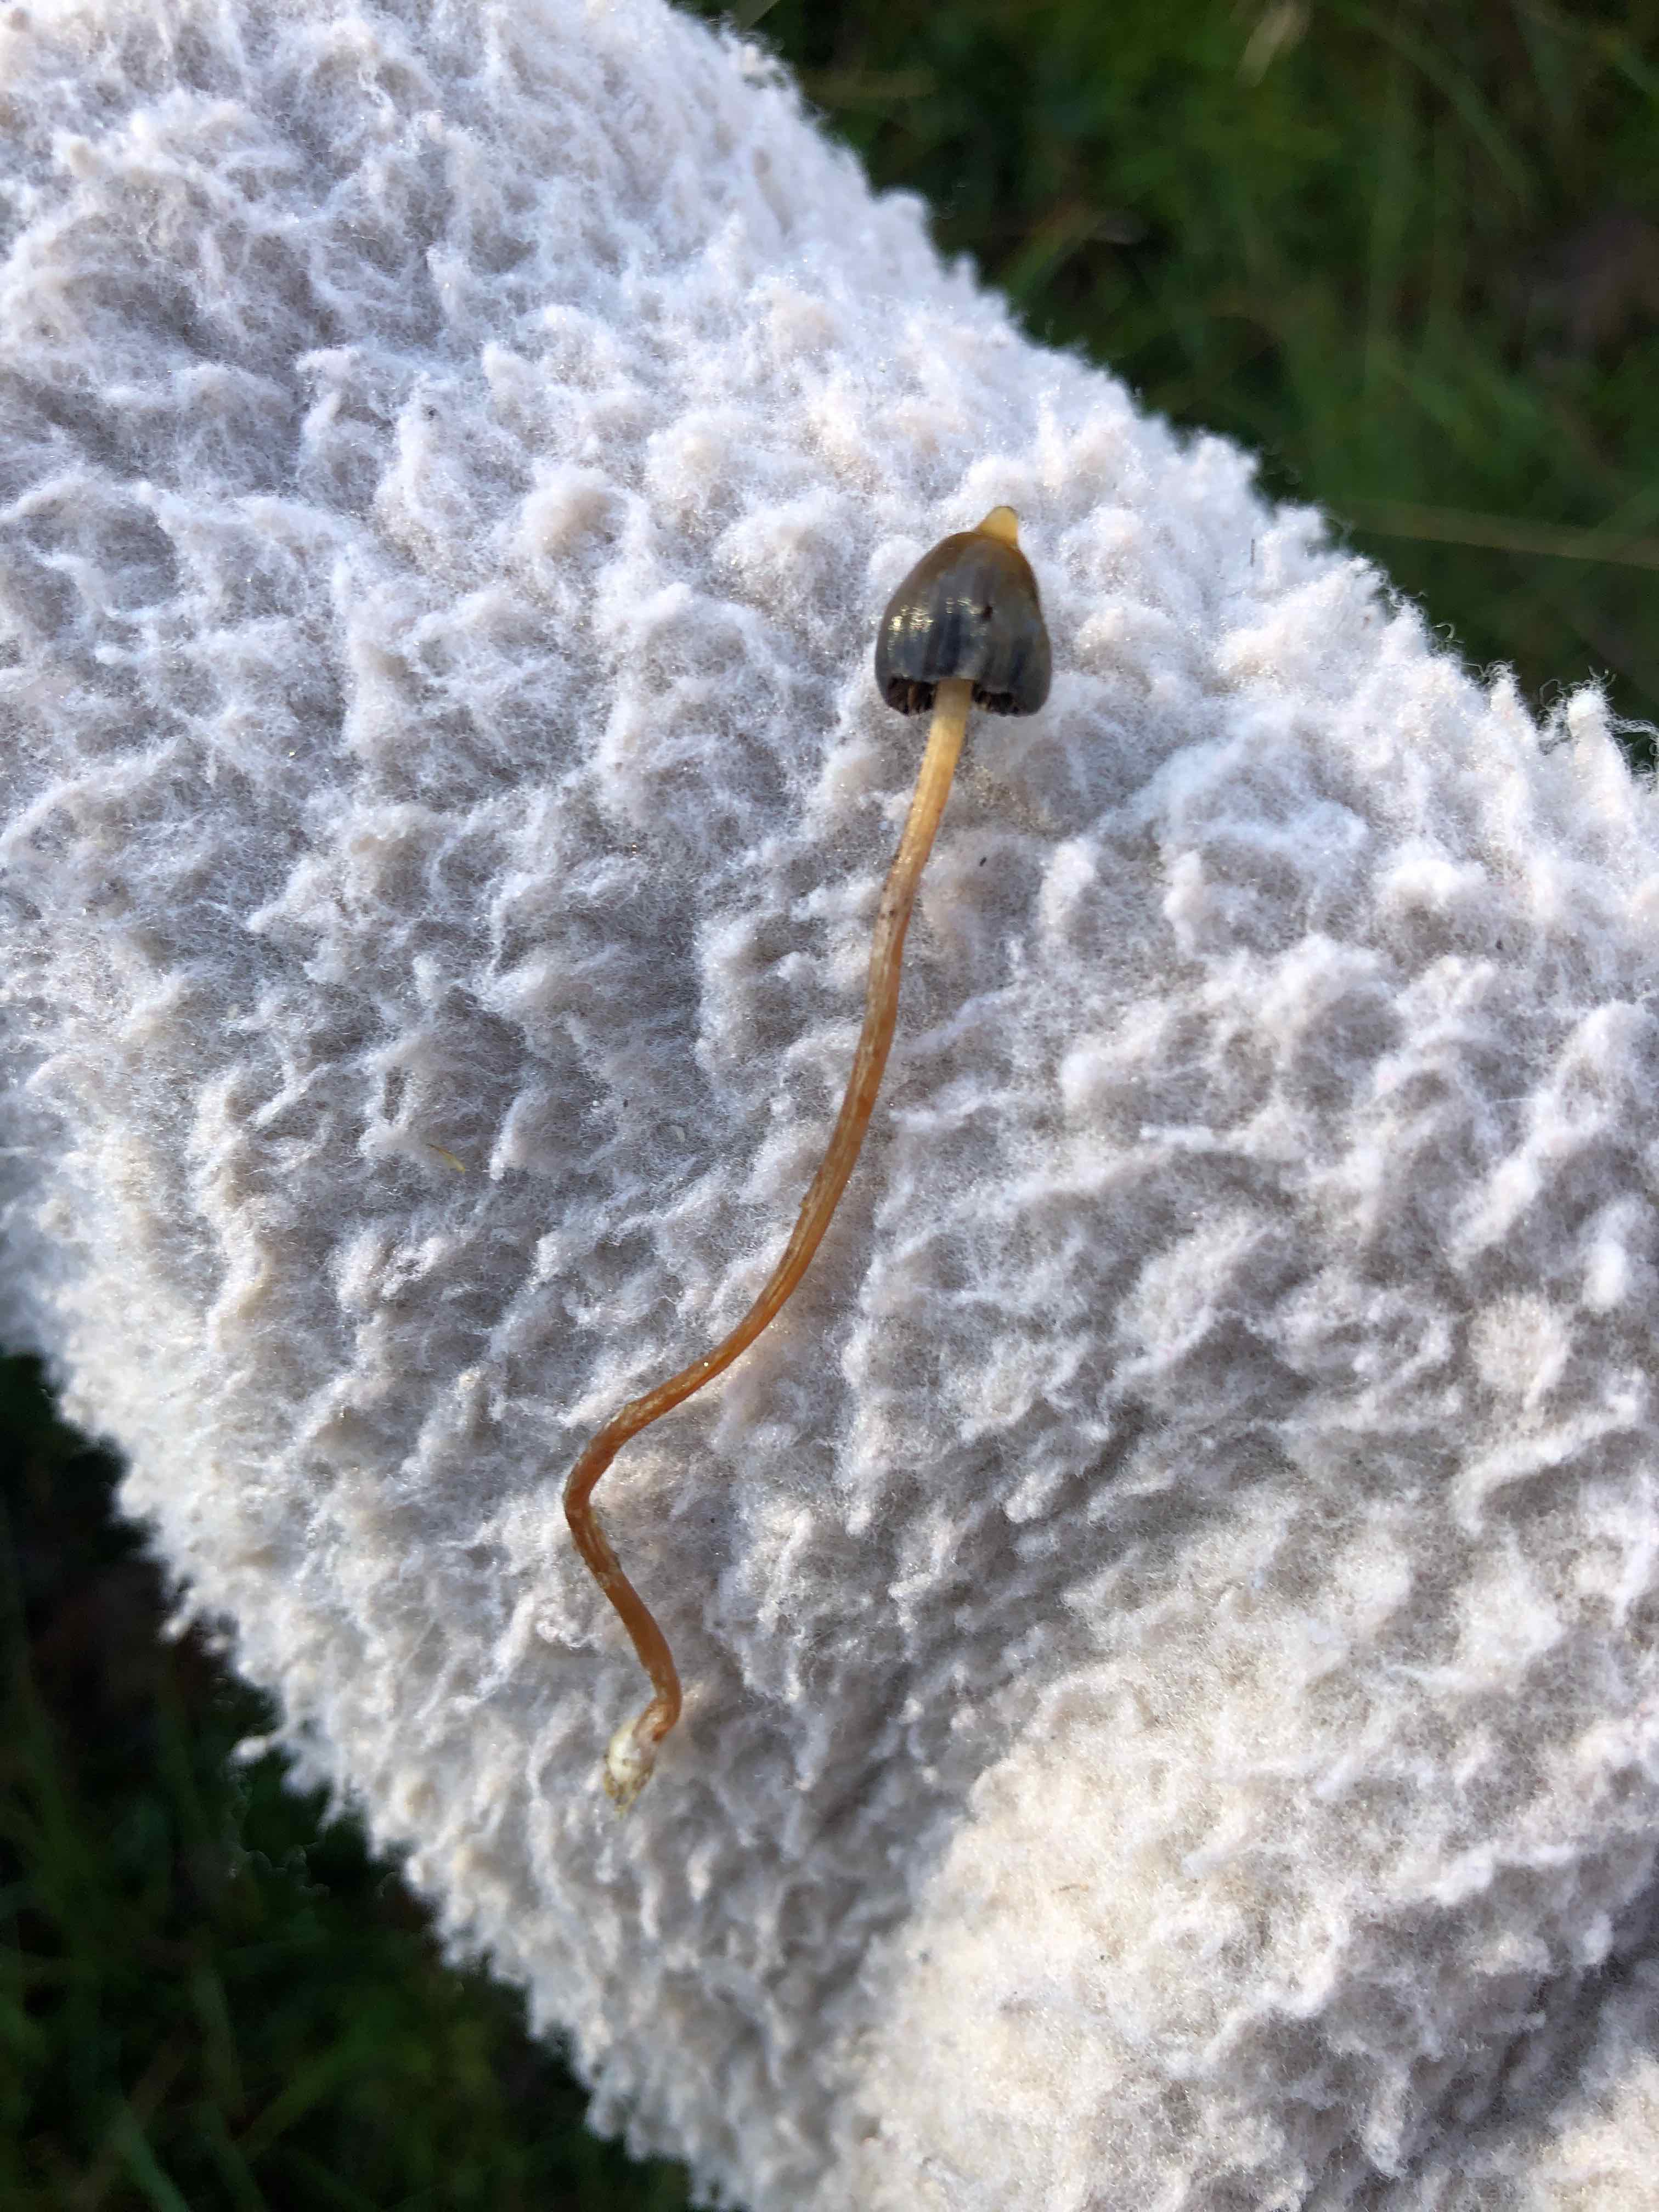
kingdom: Fungi
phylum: Basidiomycota
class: Agaricomycetes
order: Agaricales
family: Hymenogastraceae
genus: Psilocybe
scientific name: Psilocybe semilanceata
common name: spids nøgenhat
